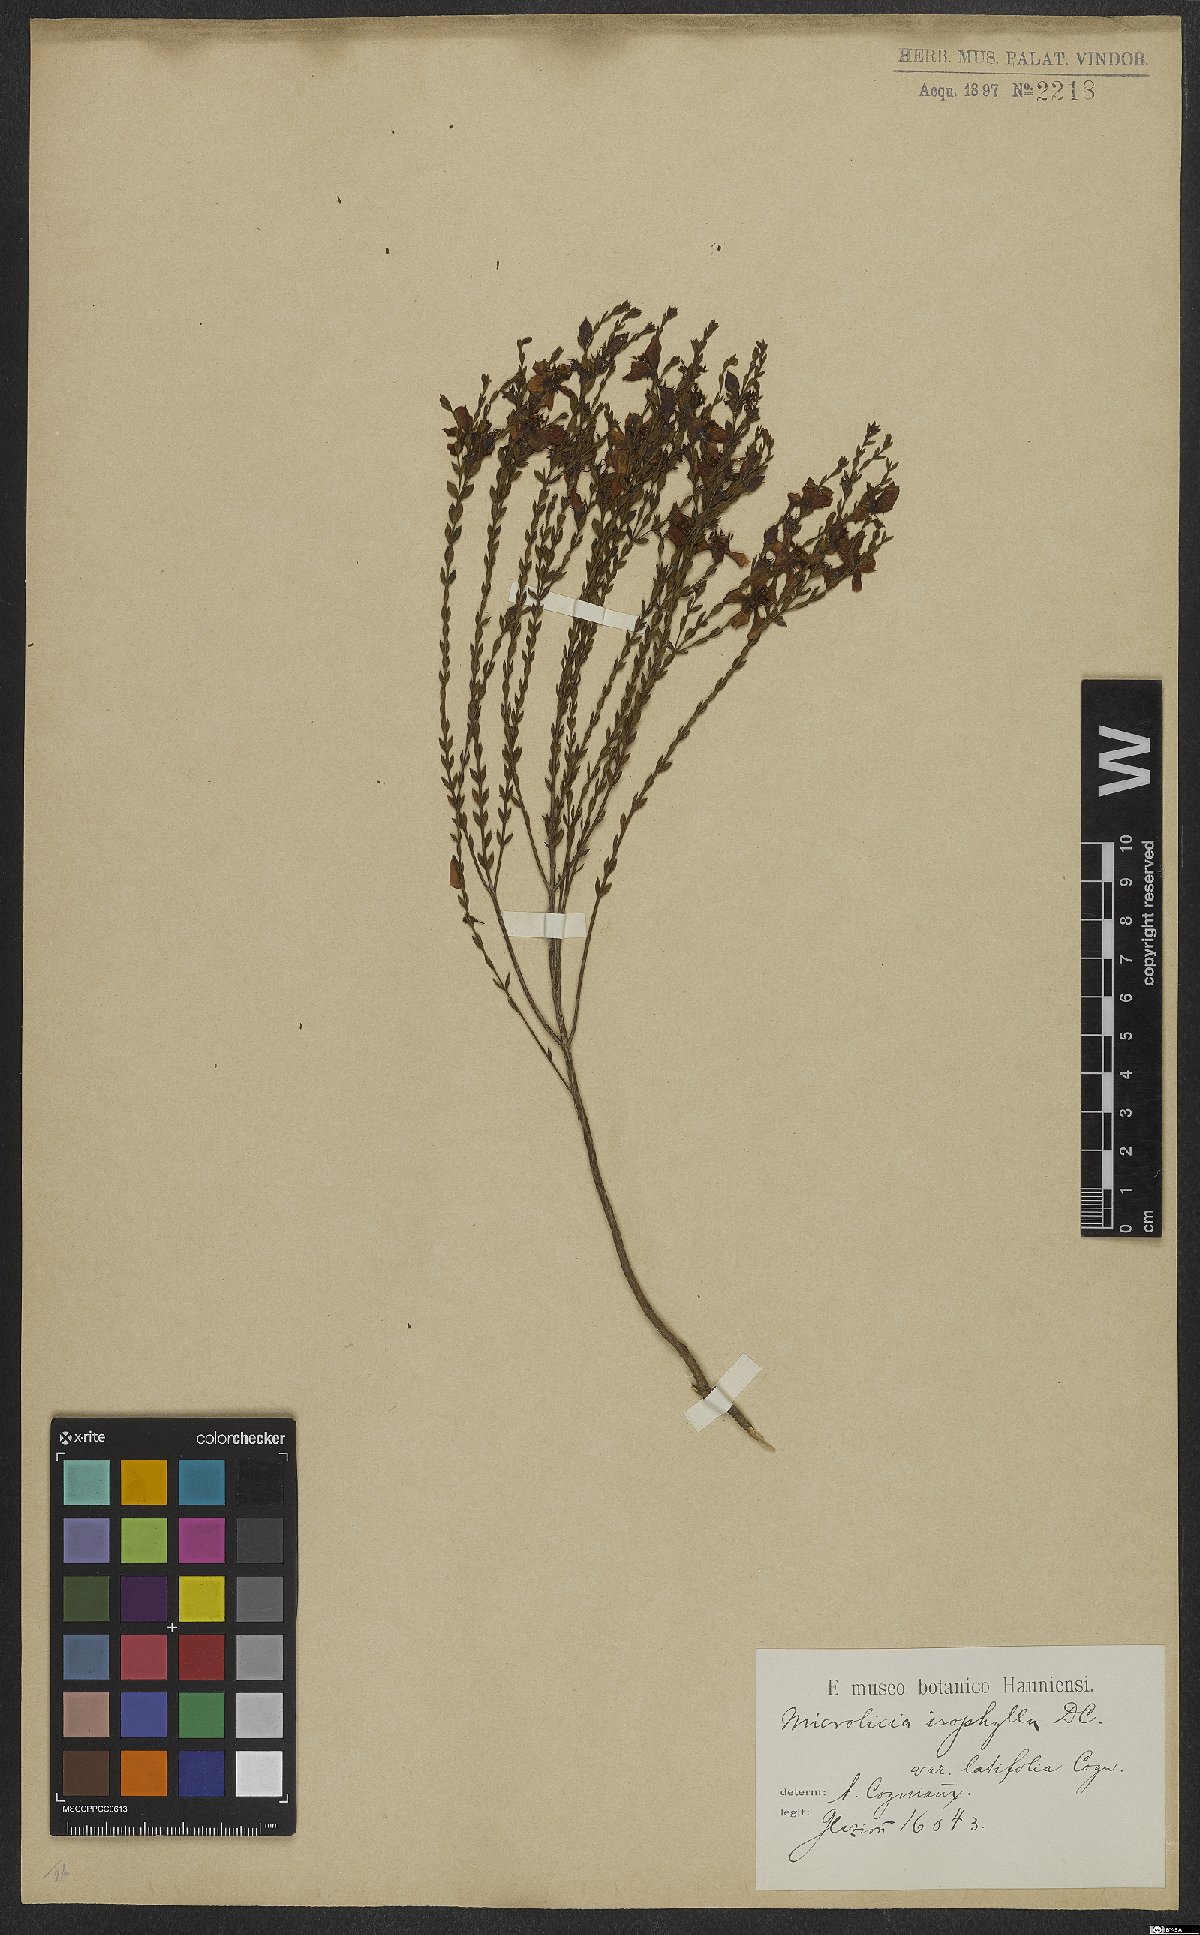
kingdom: Plantae
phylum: Tracheophyta
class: Magnoliopsida
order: Myrtales
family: Melastomataceae
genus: Microlicia
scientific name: Microlicia isophylla
